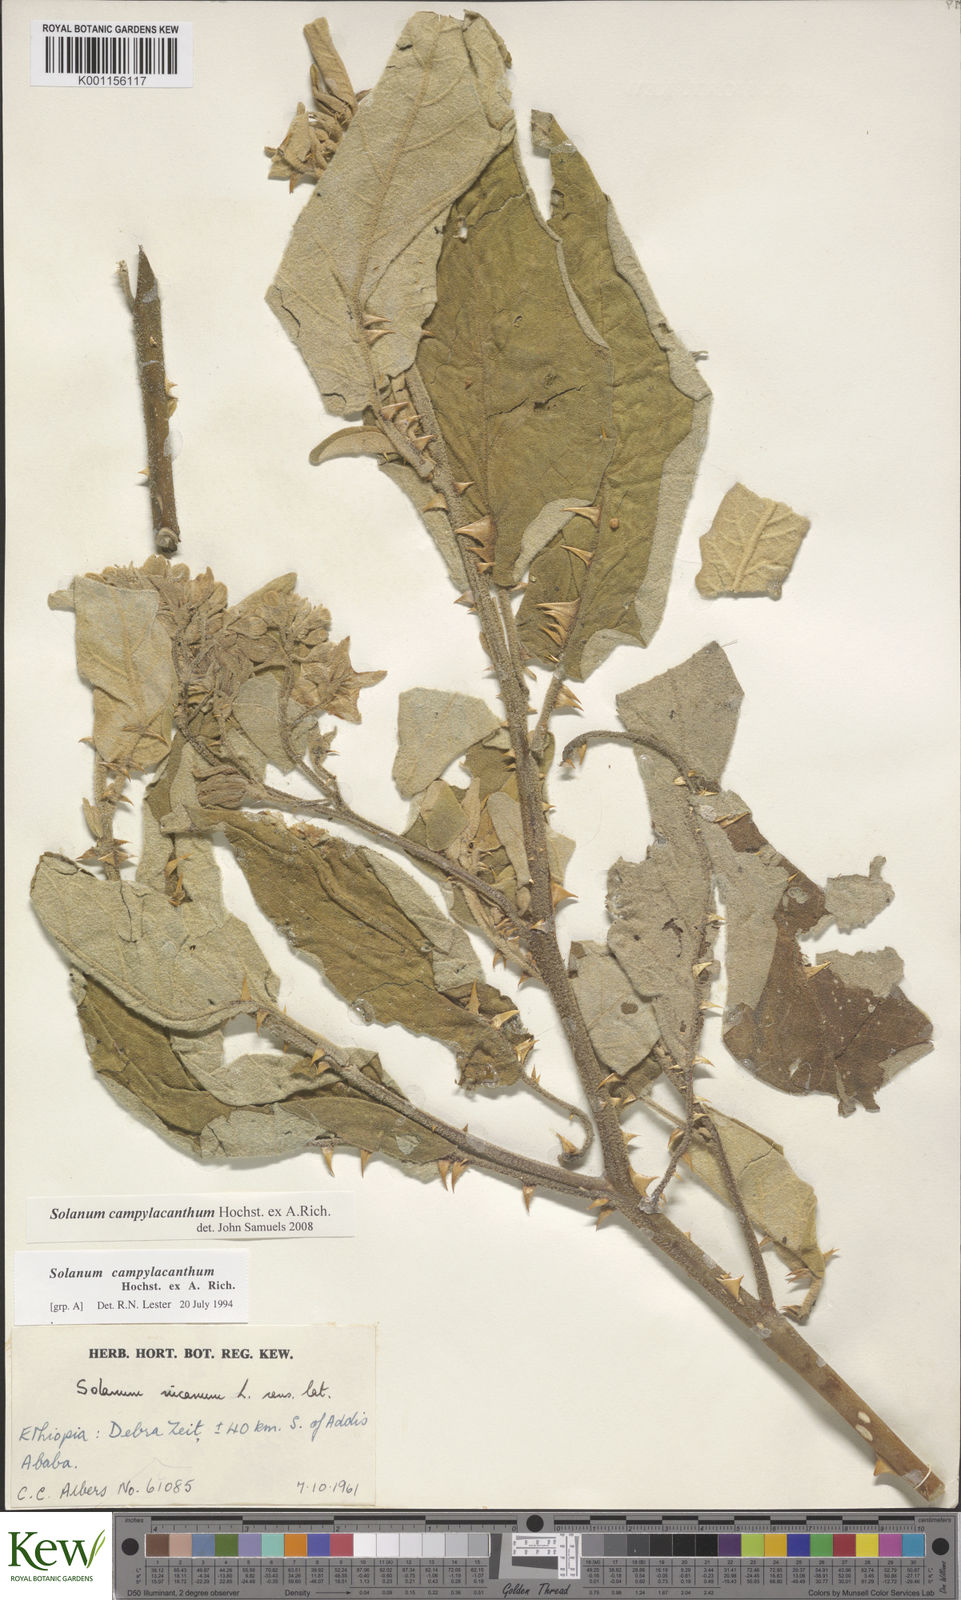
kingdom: Plantae
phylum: Tracheophyta
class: Magnoliopsida
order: Solanales
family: Solanaceae
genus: Solanum
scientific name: Solanum campylacanthum
